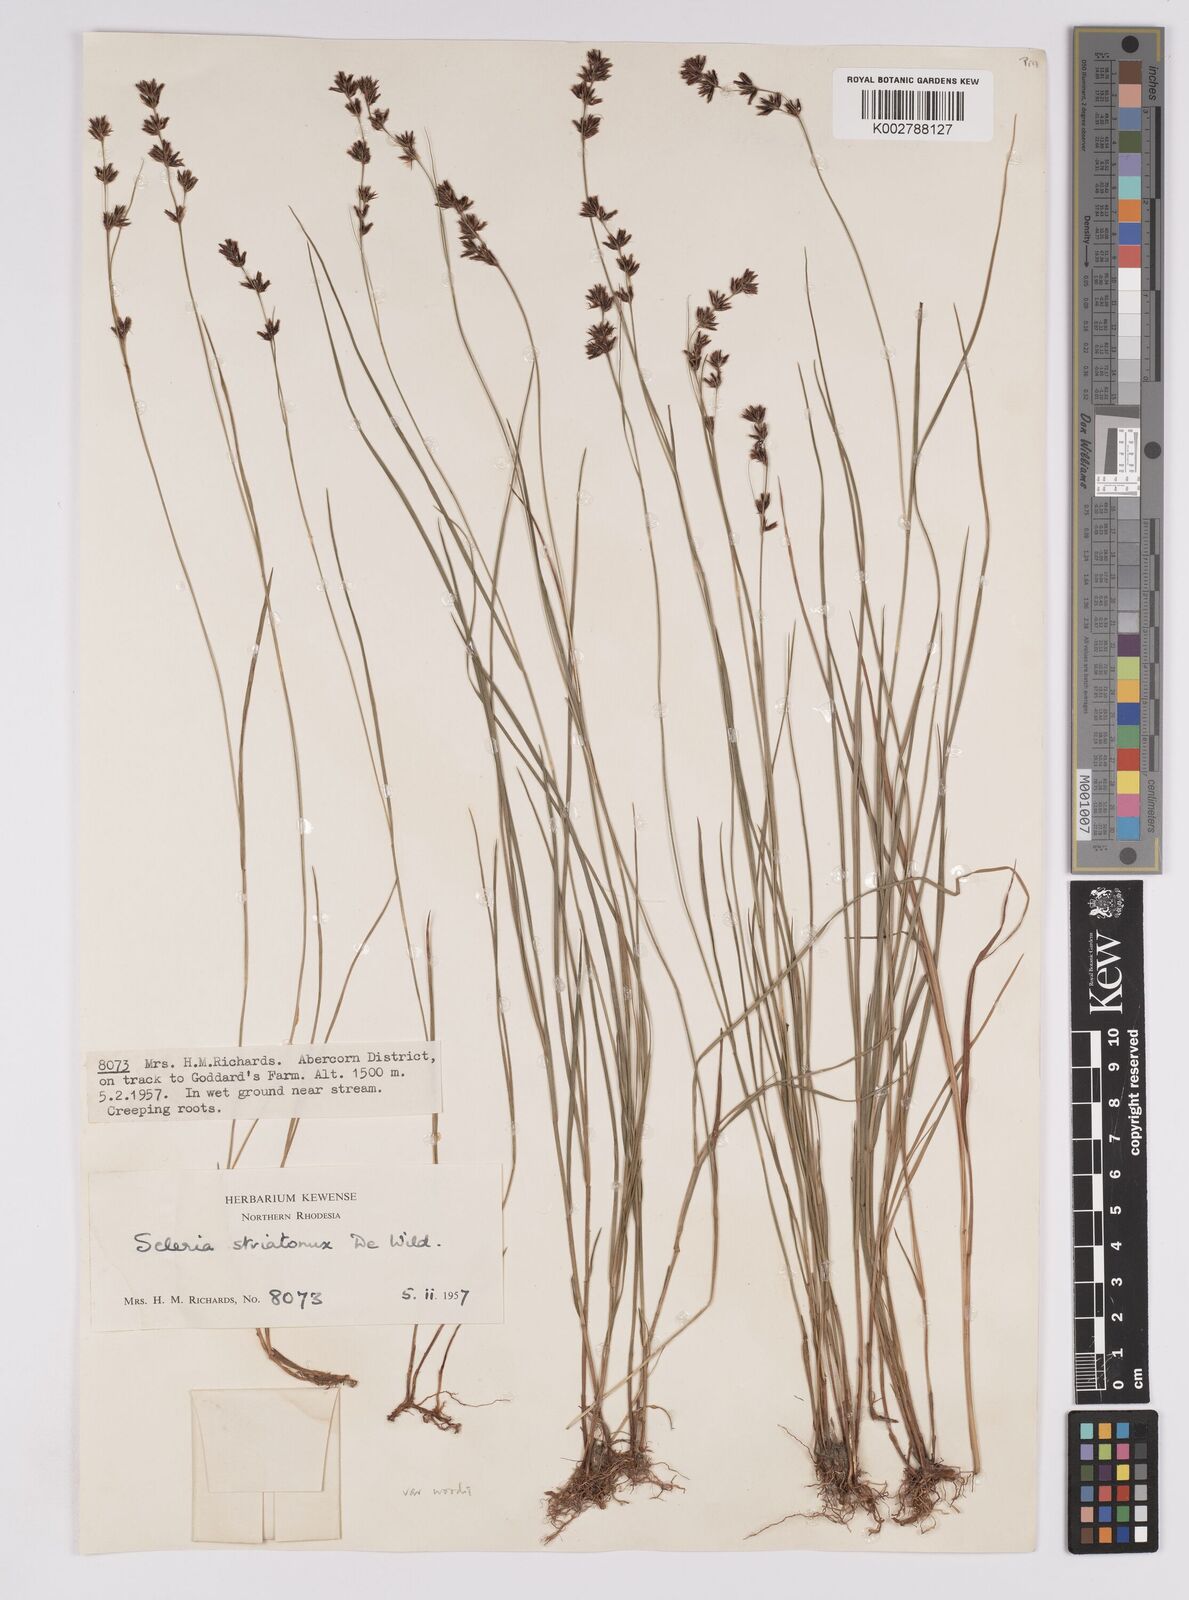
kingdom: Plantae
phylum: Tracheophyta
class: Liliopsida
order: Poales
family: Cyperaceae
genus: Scleria
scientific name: Scleria woodii
